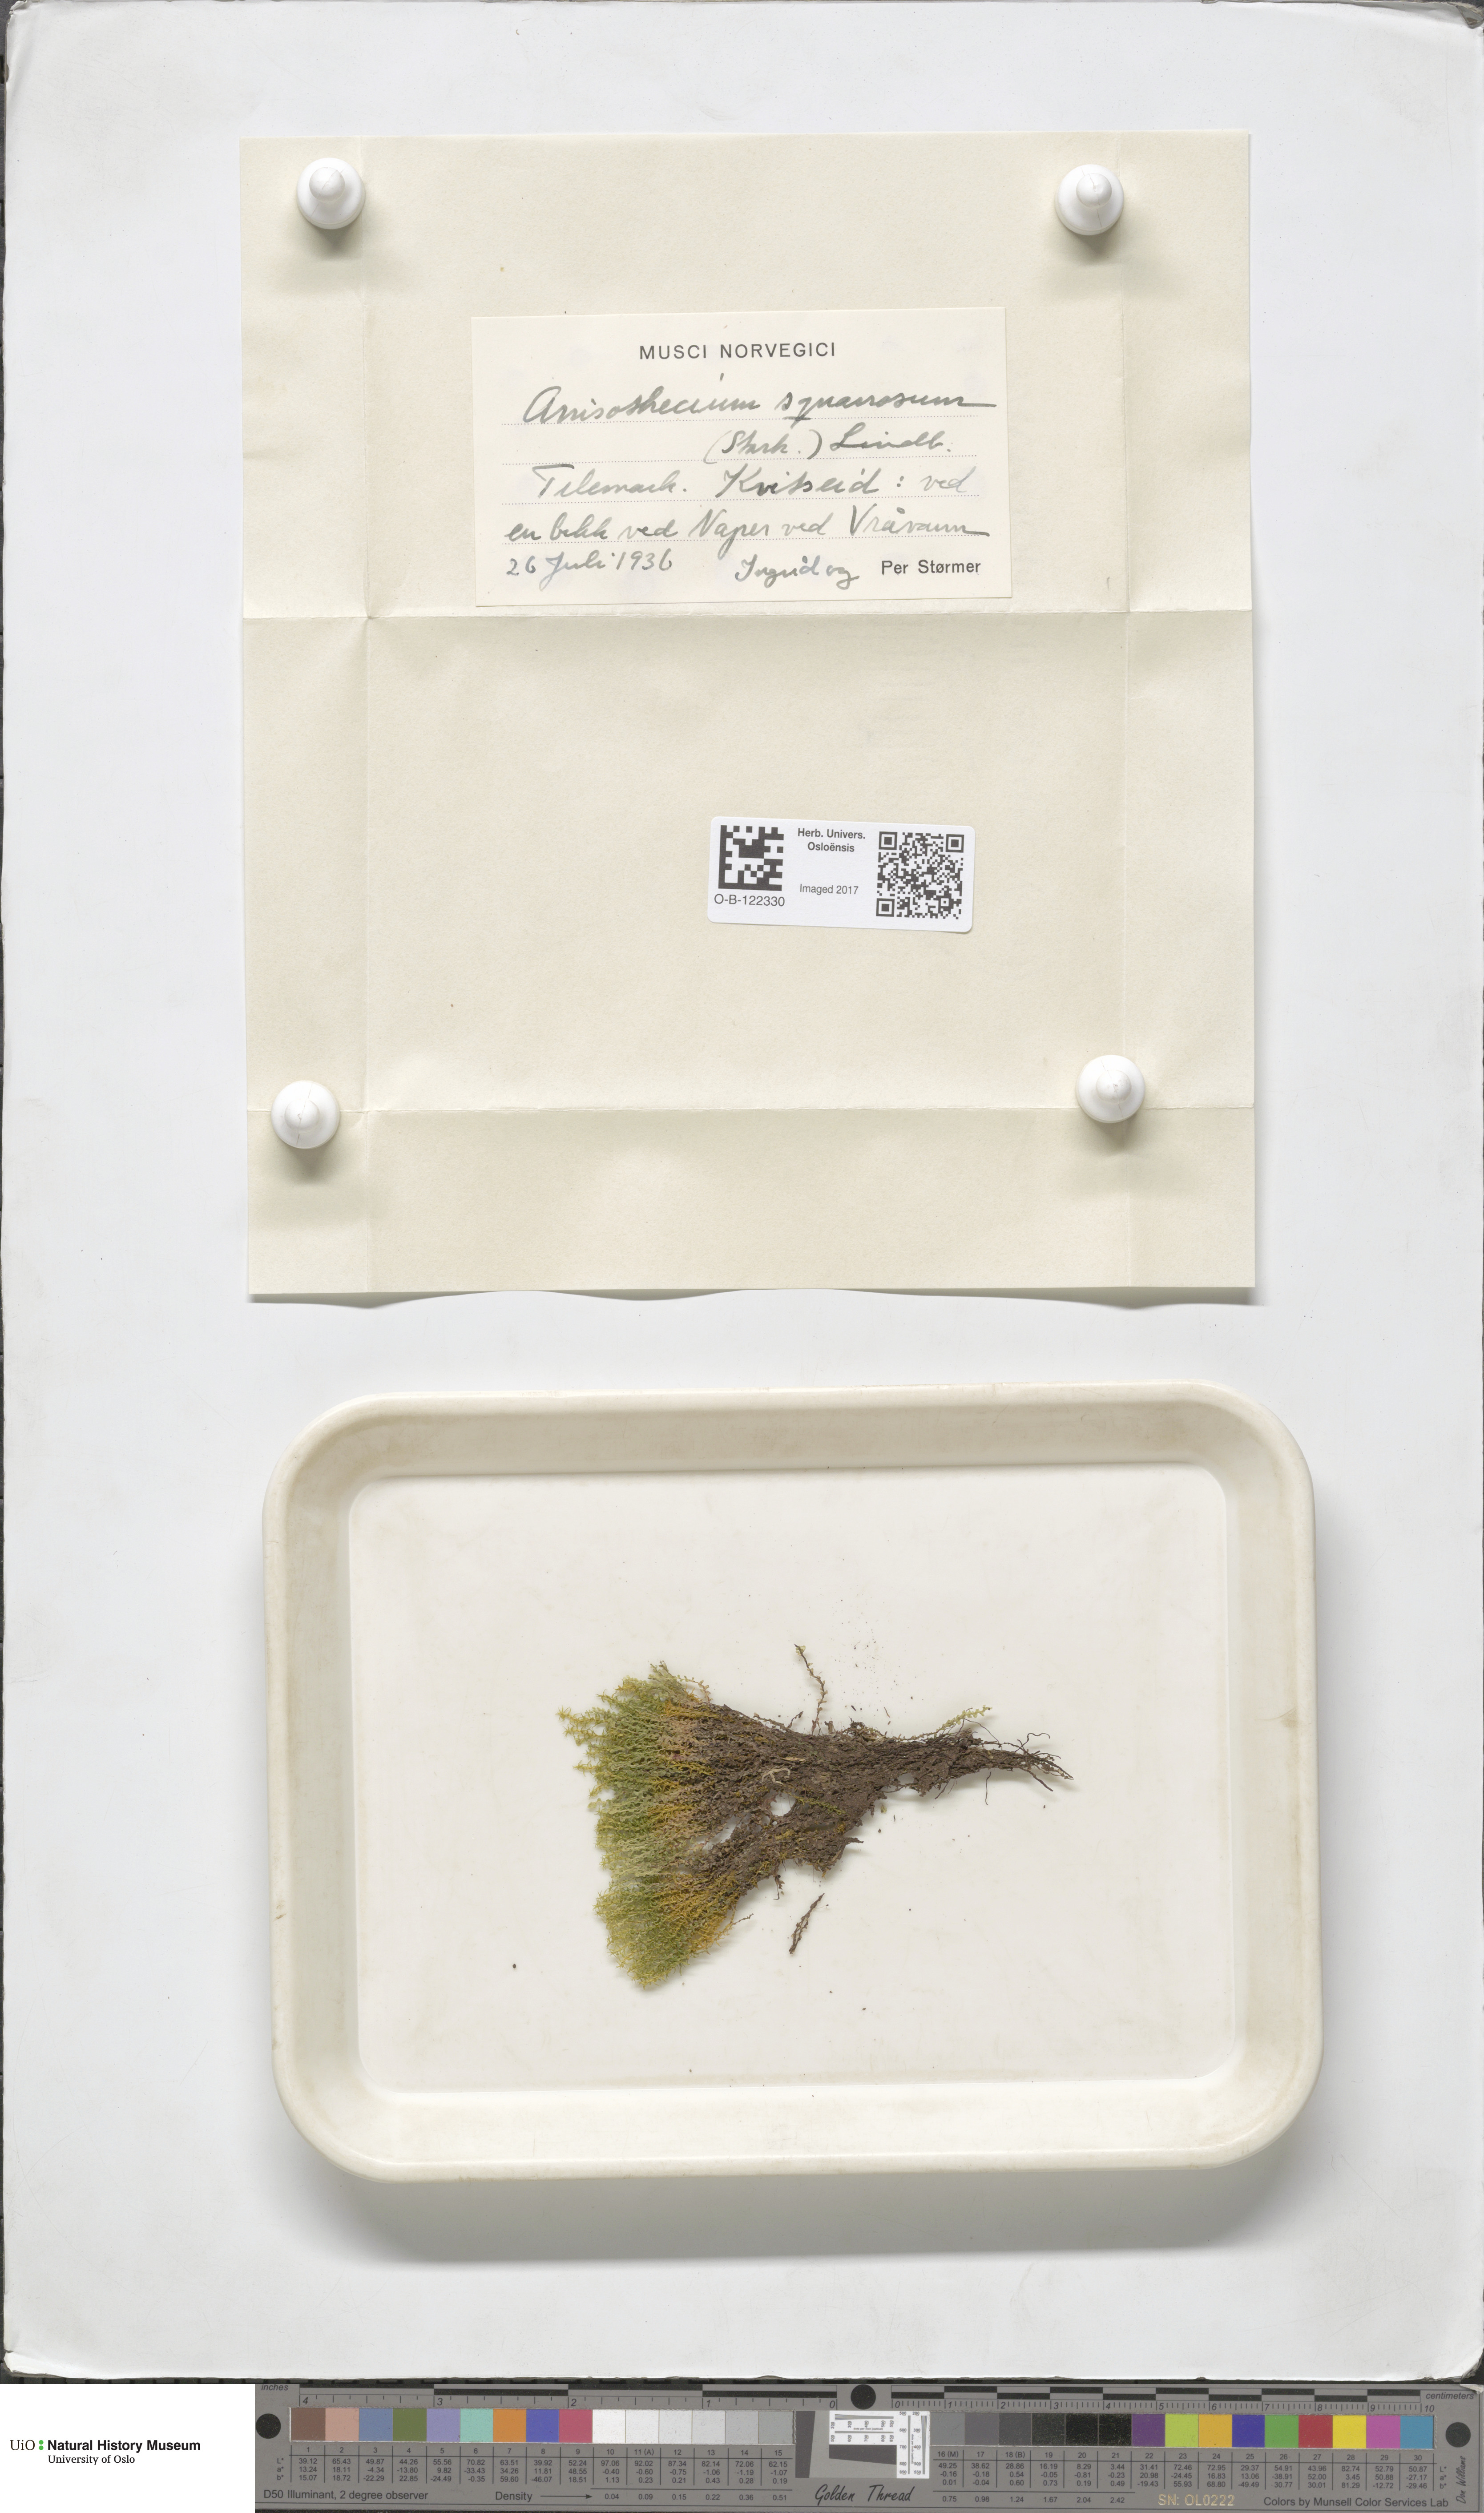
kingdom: Plantae
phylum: Bryophyta
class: Bryopsida
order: Dicranales
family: Aongstroemiaceae
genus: Diobelonella
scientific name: Diobelonella palustris
